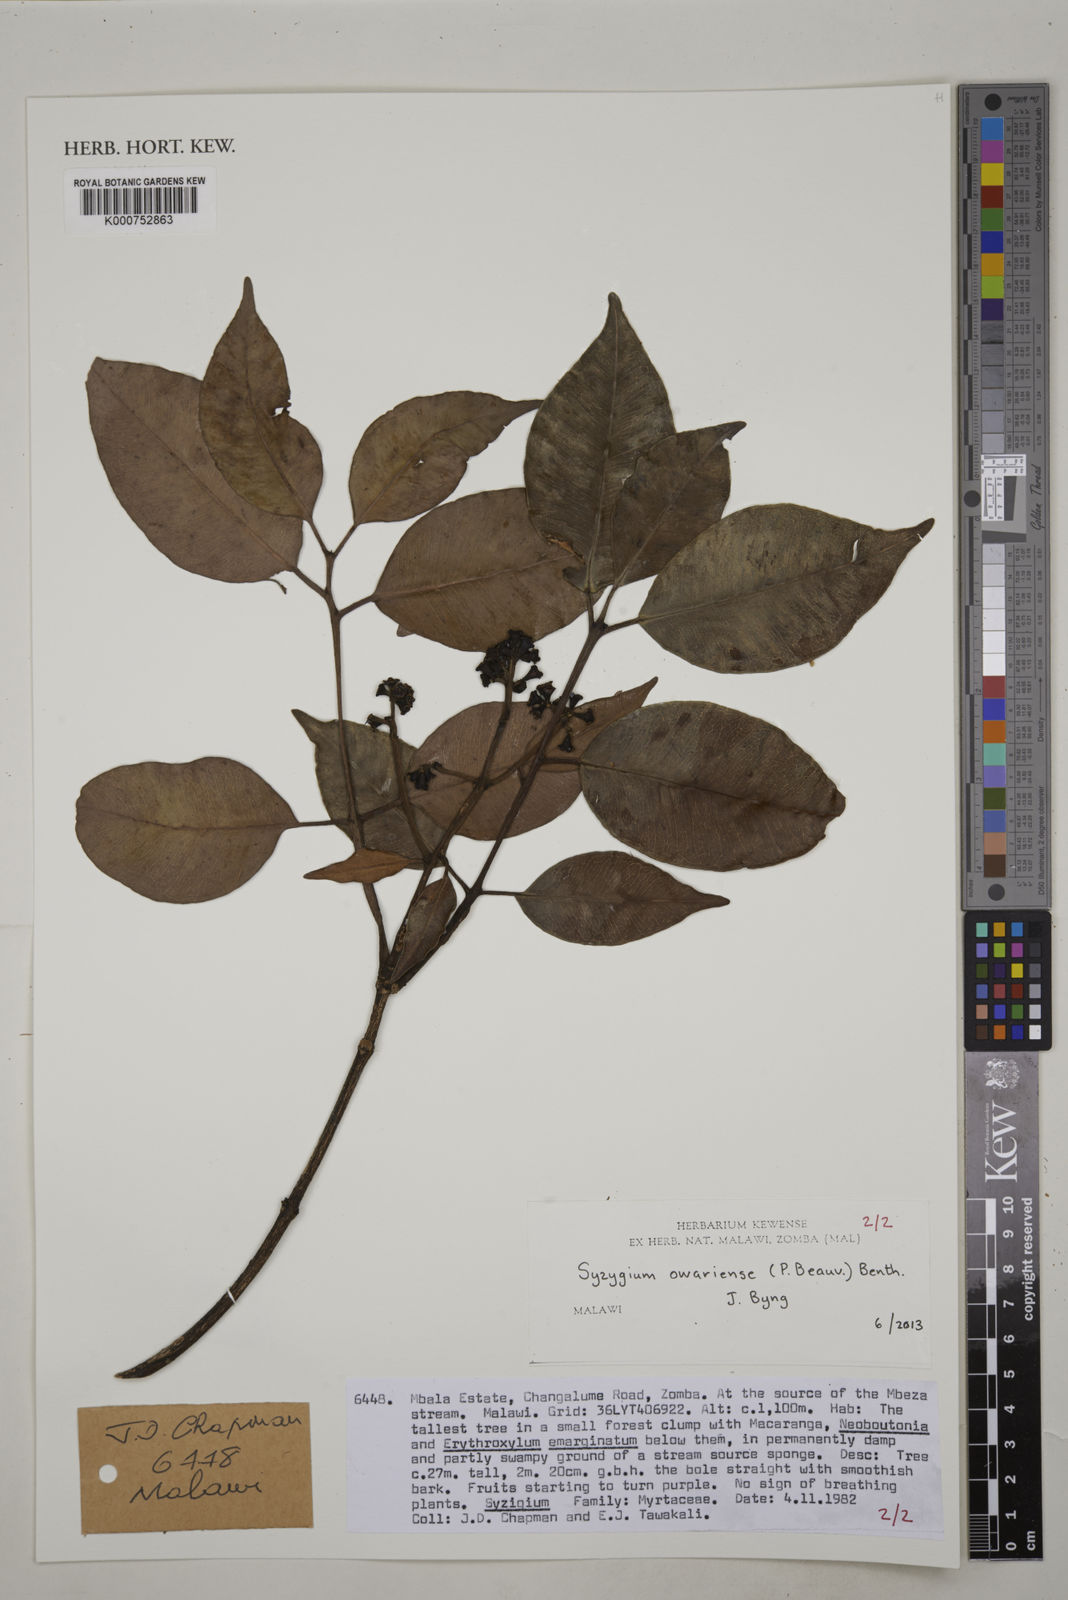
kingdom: Plantae
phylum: Tracheophyta
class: Magnoliopsida
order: Myrtales
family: Myrtaceae
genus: Syzygium
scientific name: Syzygium owariense
